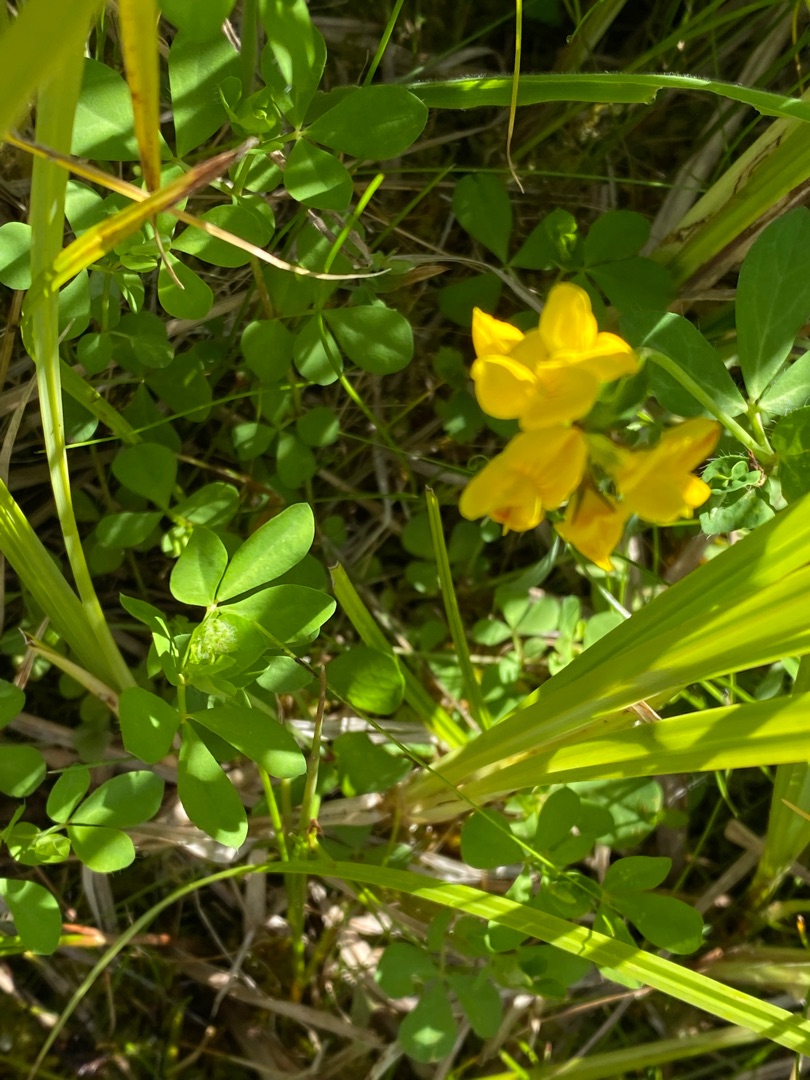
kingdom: Plantae
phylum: Tracheophyta
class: Magnoliopsida
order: Fabales
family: Fabaceae
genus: Lotus
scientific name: Lotus pedunculatus
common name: Sump-kællingetand
